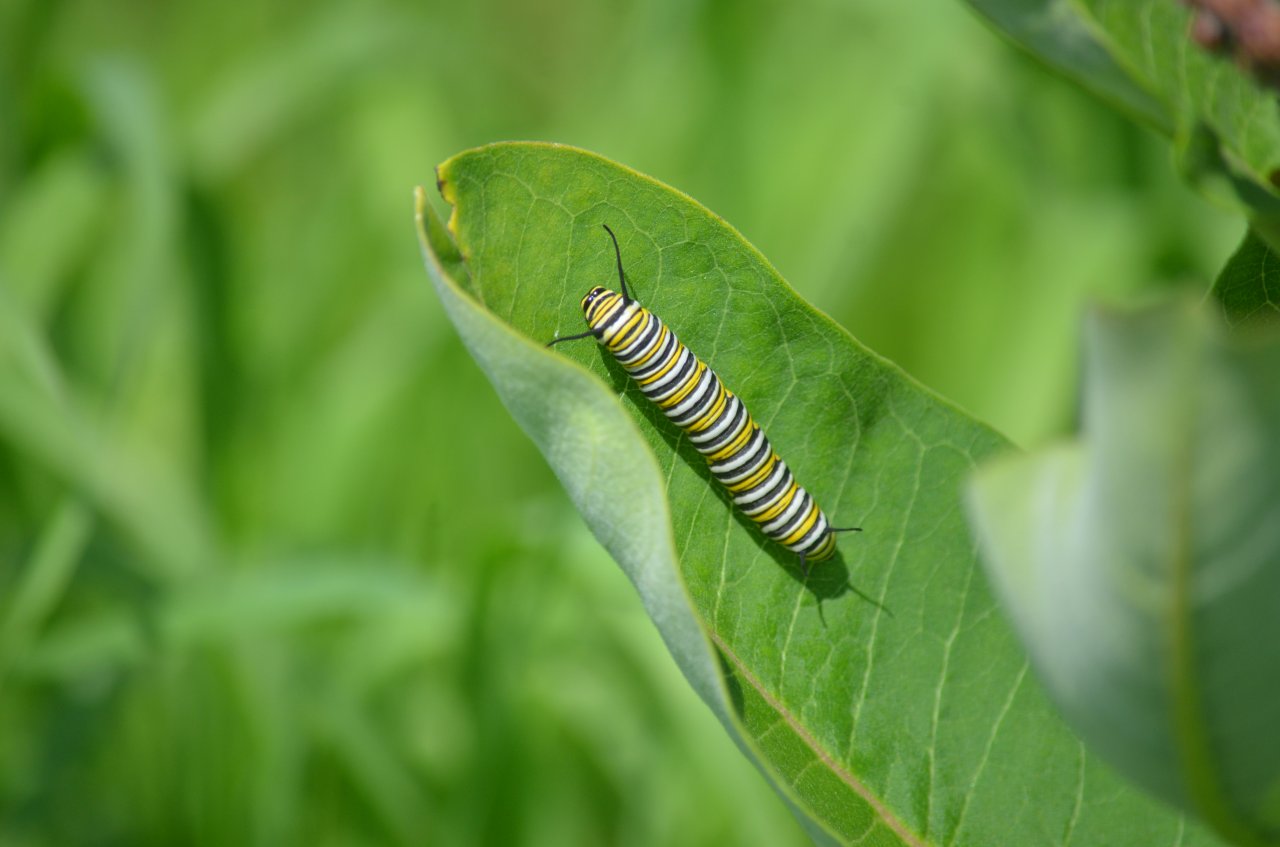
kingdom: Animalia
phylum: Arthropoda
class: Insecta
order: Lepidoptera
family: Nymphalidae
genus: Danaus
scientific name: Danaus plexippus
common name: Monarch
